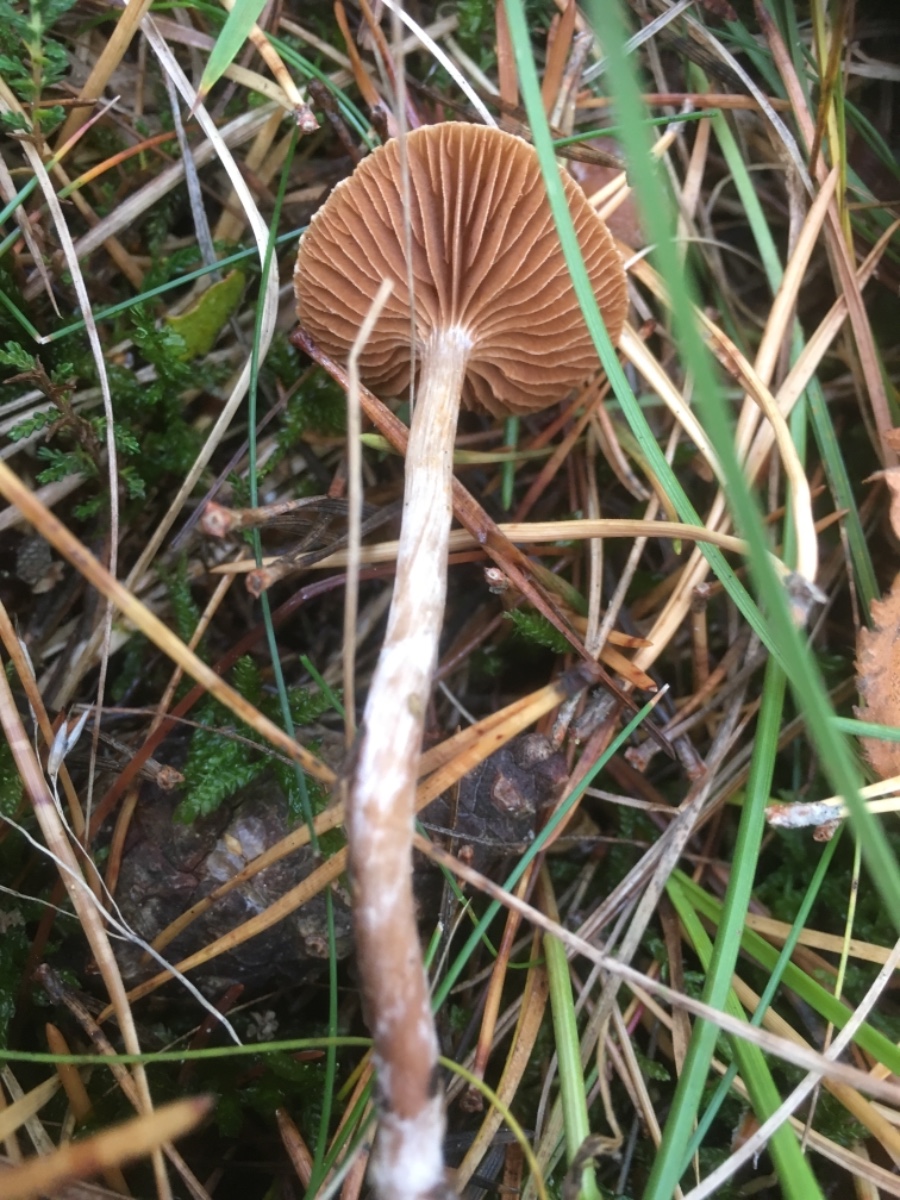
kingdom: Fungi
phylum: Basidiomycota
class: Agaricomycetes
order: Agaricales
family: Cortinariaceae
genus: Cortinarius
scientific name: Cortinarius
